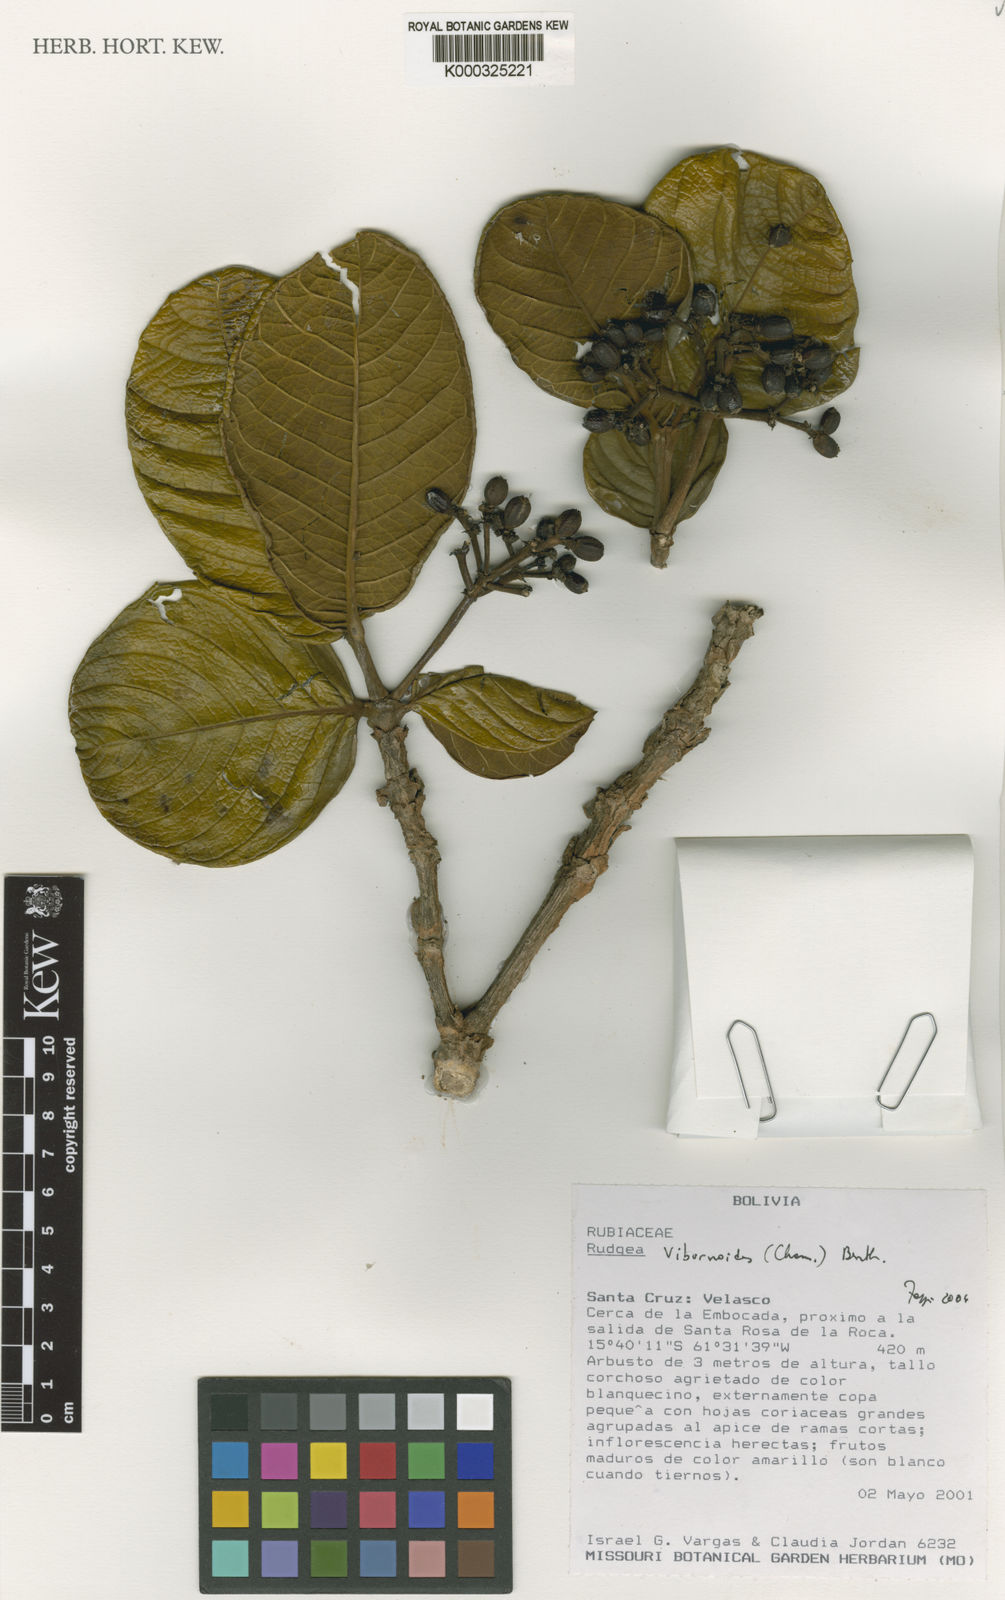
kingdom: Plantae
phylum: Tracheophyta
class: Magnoliopsida
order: Gentianales
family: Rubiaceae
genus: Rudgea
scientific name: Rudgea viburnoides
